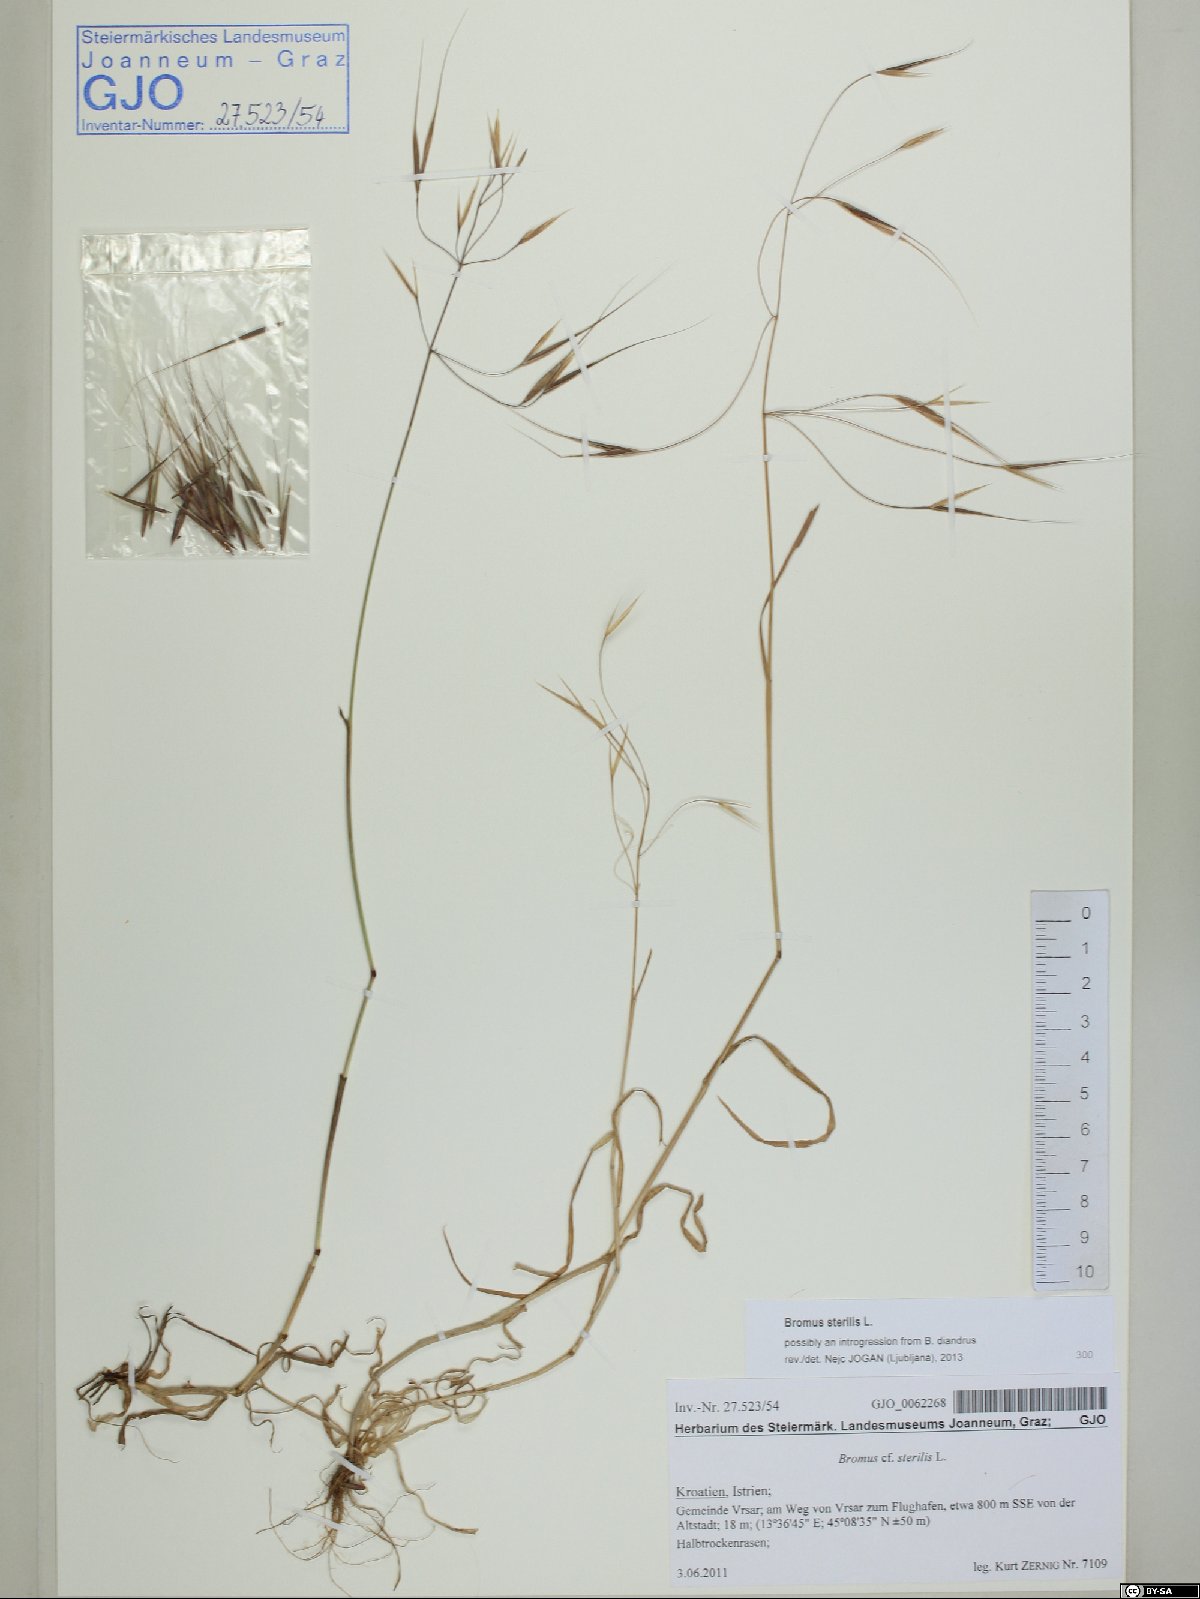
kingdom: Plantae
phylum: Tracheophyta
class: Liliopsida
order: Poales
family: Poaceae
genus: Bromus
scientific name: Bromus sterilis
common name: Poverty brome
